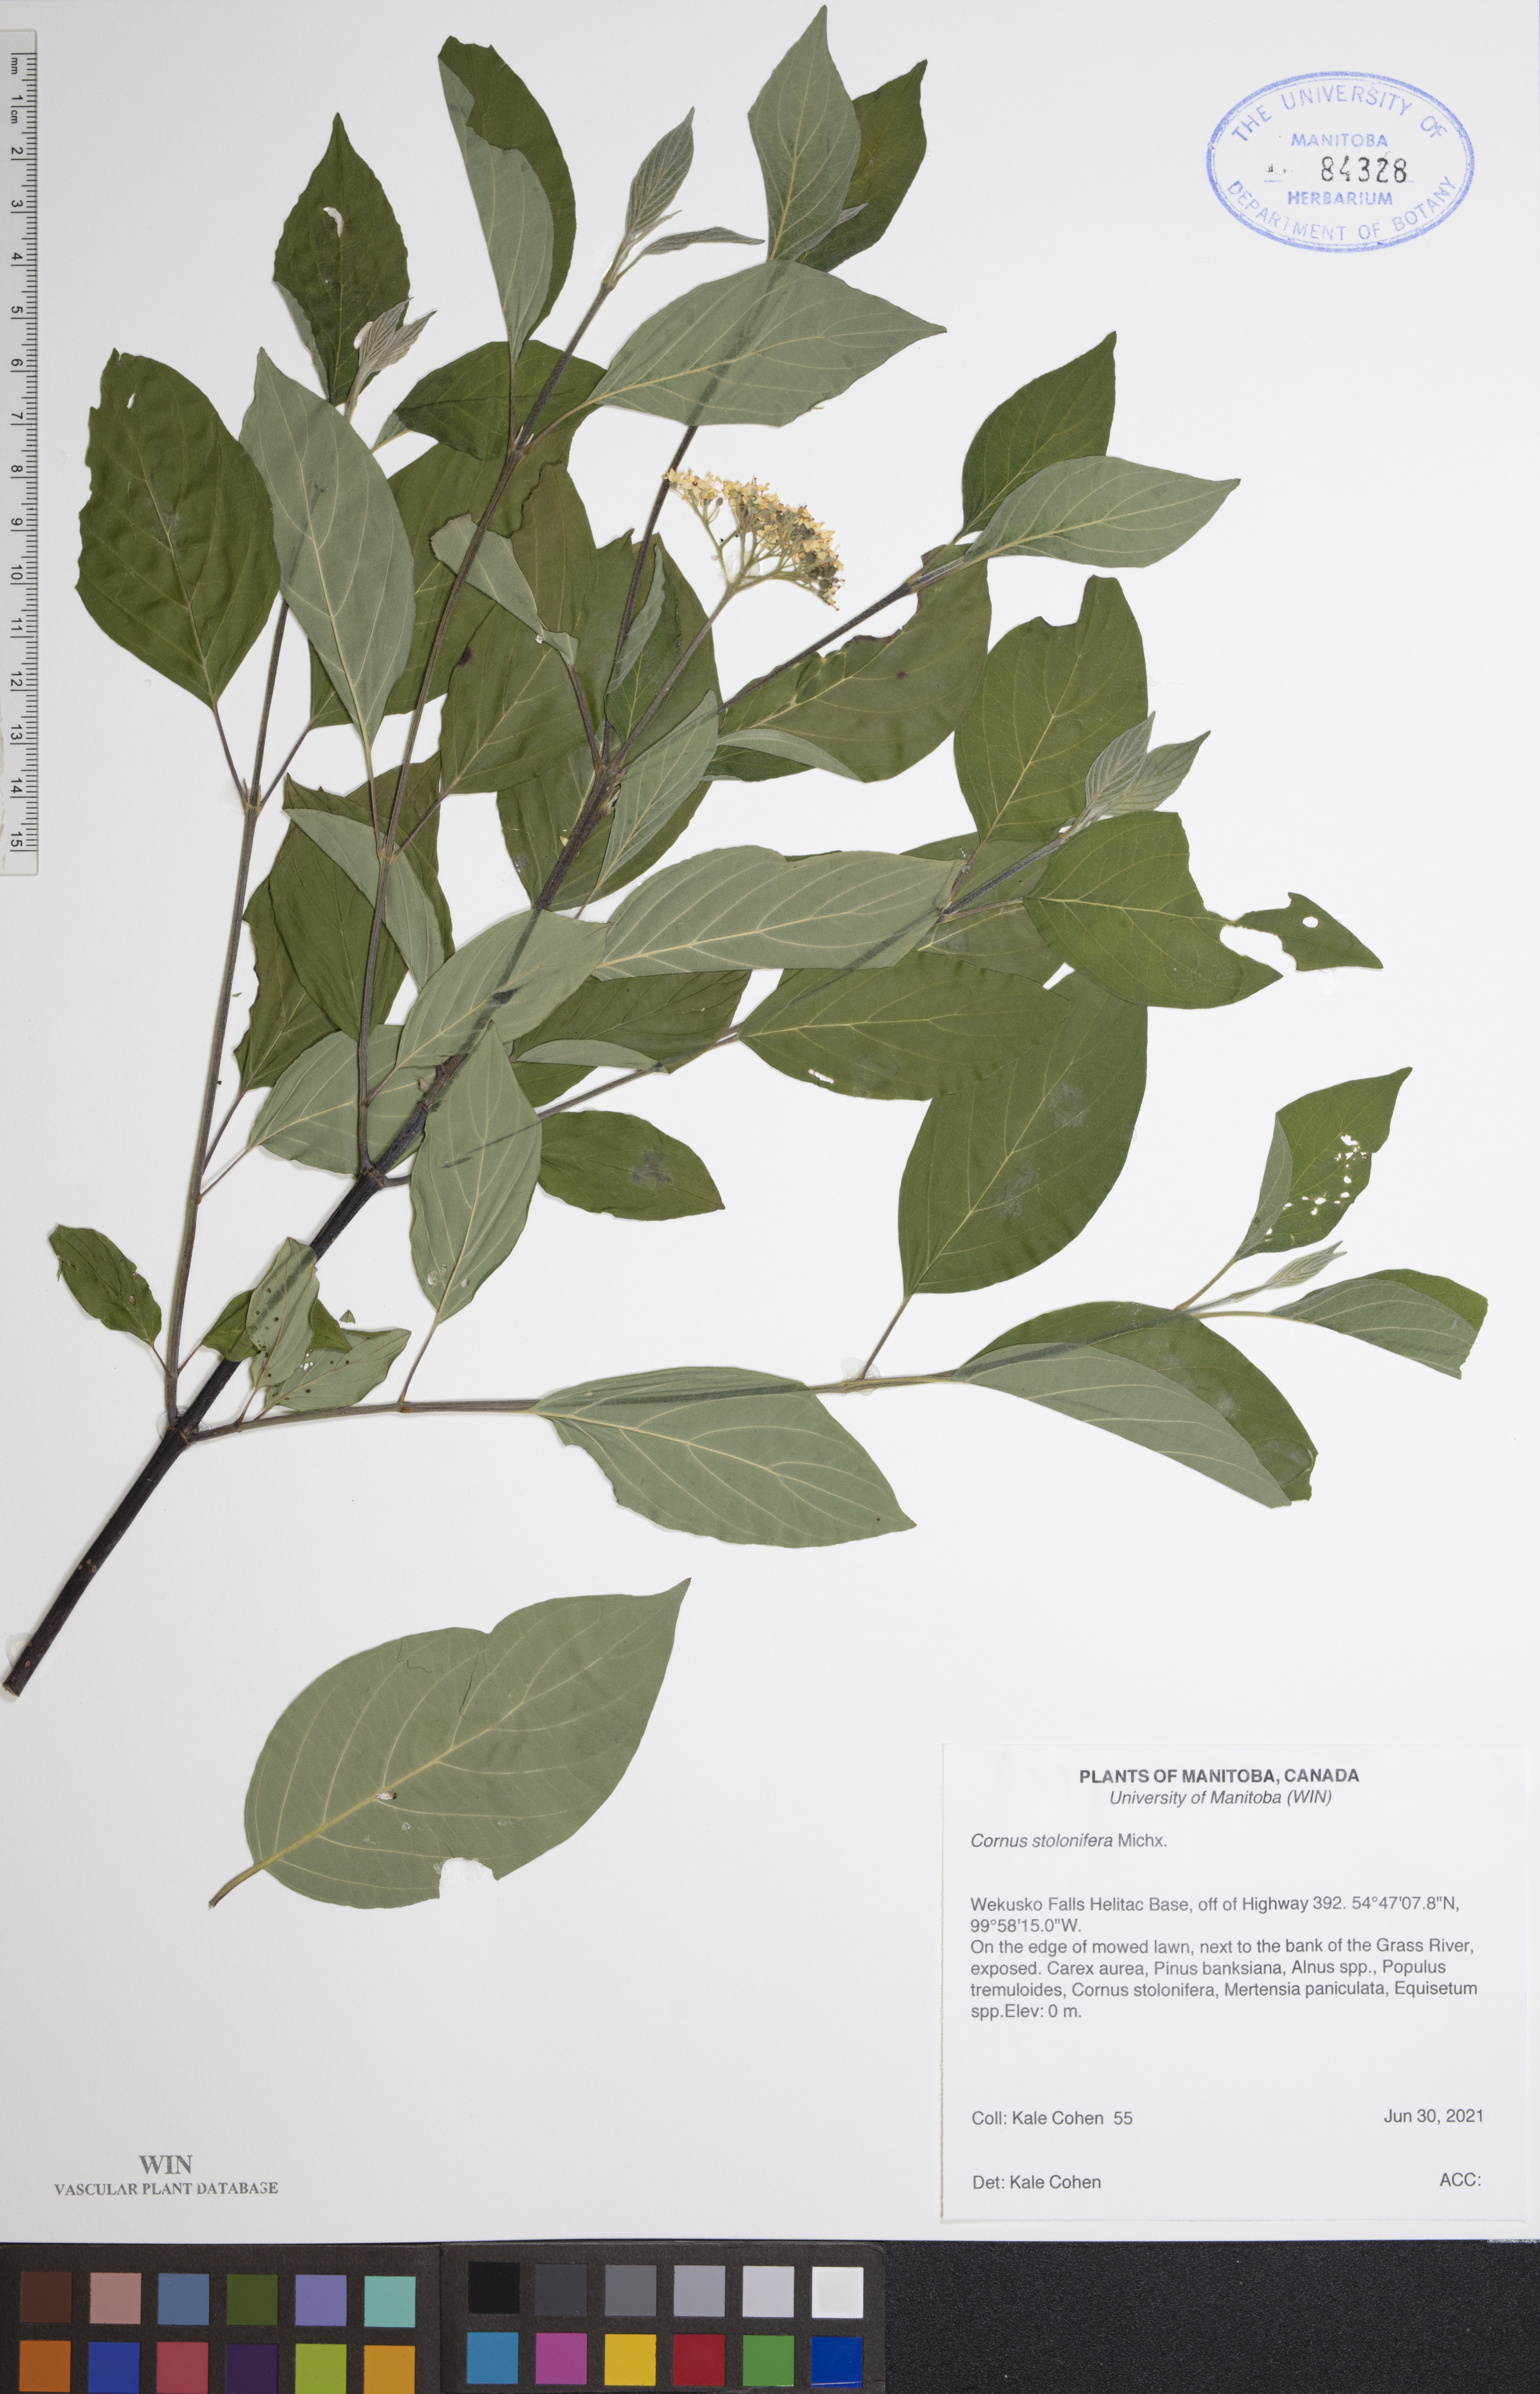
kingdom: Plantae
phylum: Tracheophyta
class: Magnoliopsida
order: Cornales
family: Cornaceae
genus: Cornus
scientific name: Cornus sericea
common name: Red-osier dogwood
